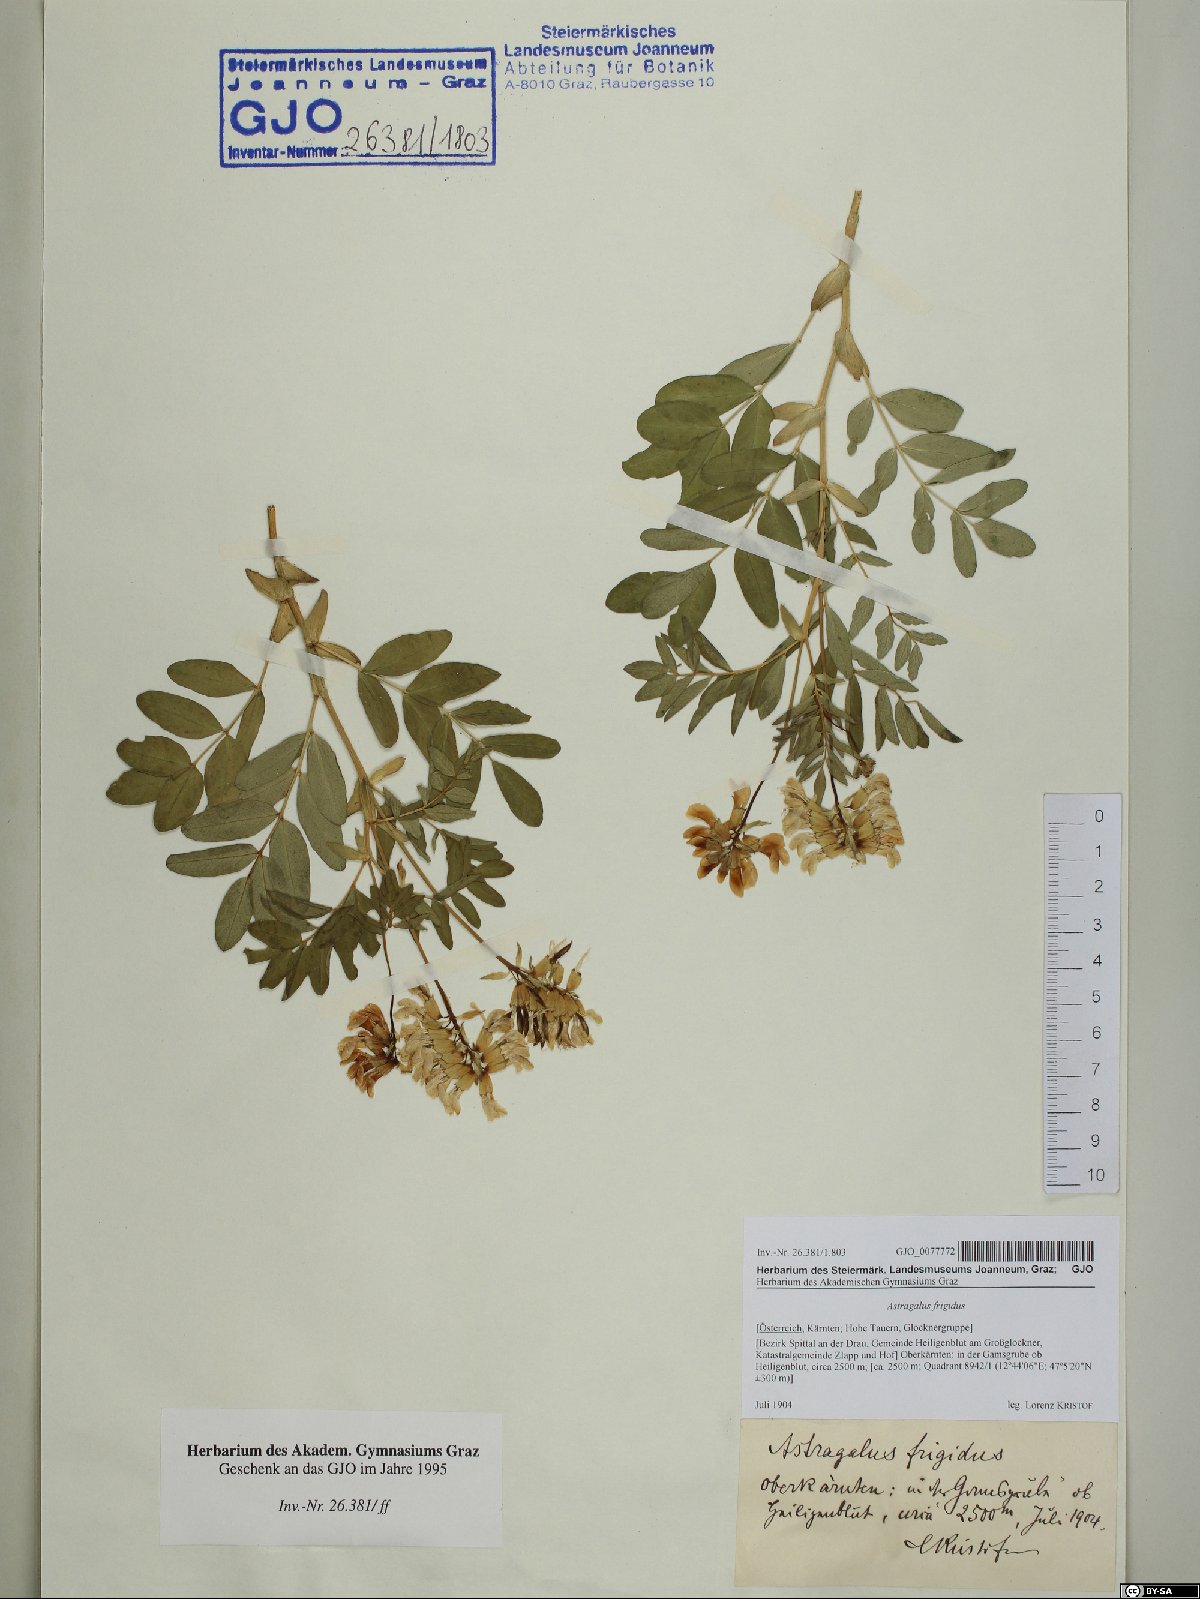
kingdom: Plantae
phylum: Tracheophyta
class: Magnoliopsida
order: Fabales
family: Fabaceae
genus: Astragalus
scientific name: Astragalus frigidus
